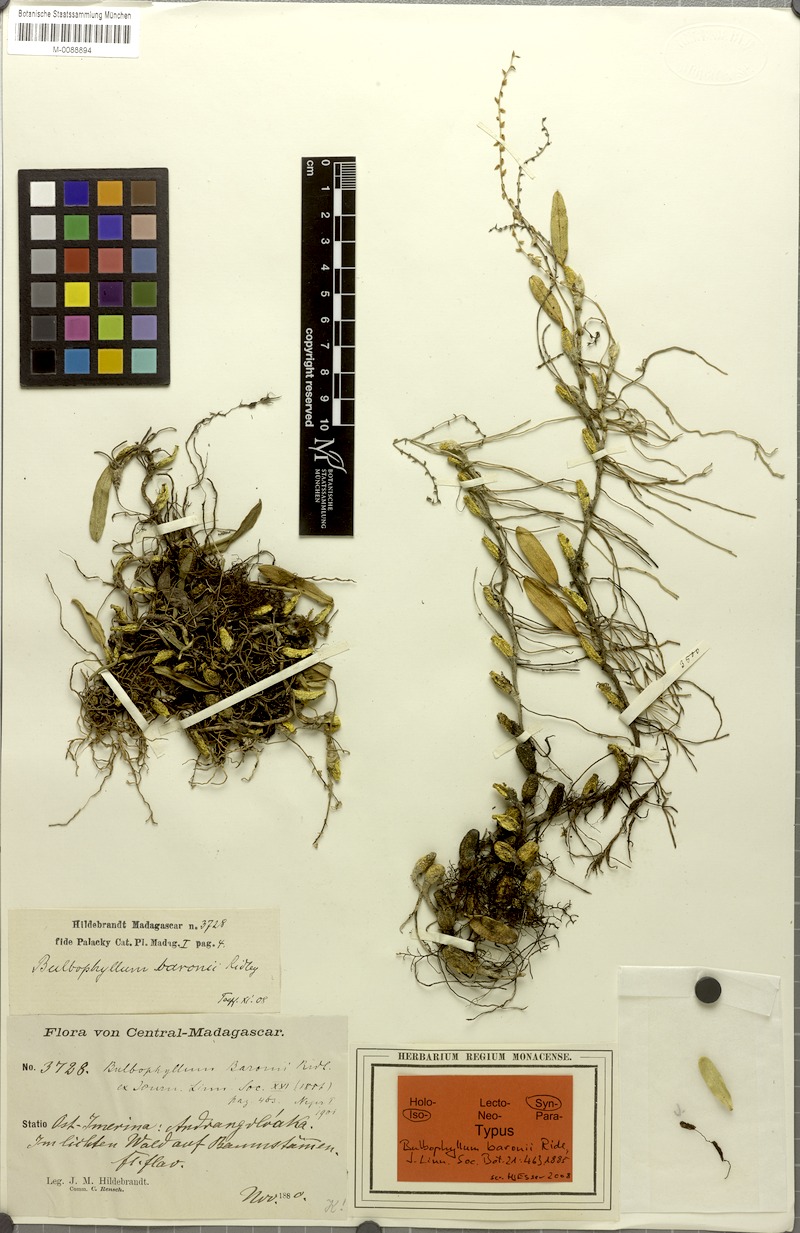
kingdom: Plantae
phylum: Tracheophyta
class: Liliopsida
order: Asparagales
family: Orchidaceae
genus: Bulbophyllum
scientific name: Bulbophyllum baronii
